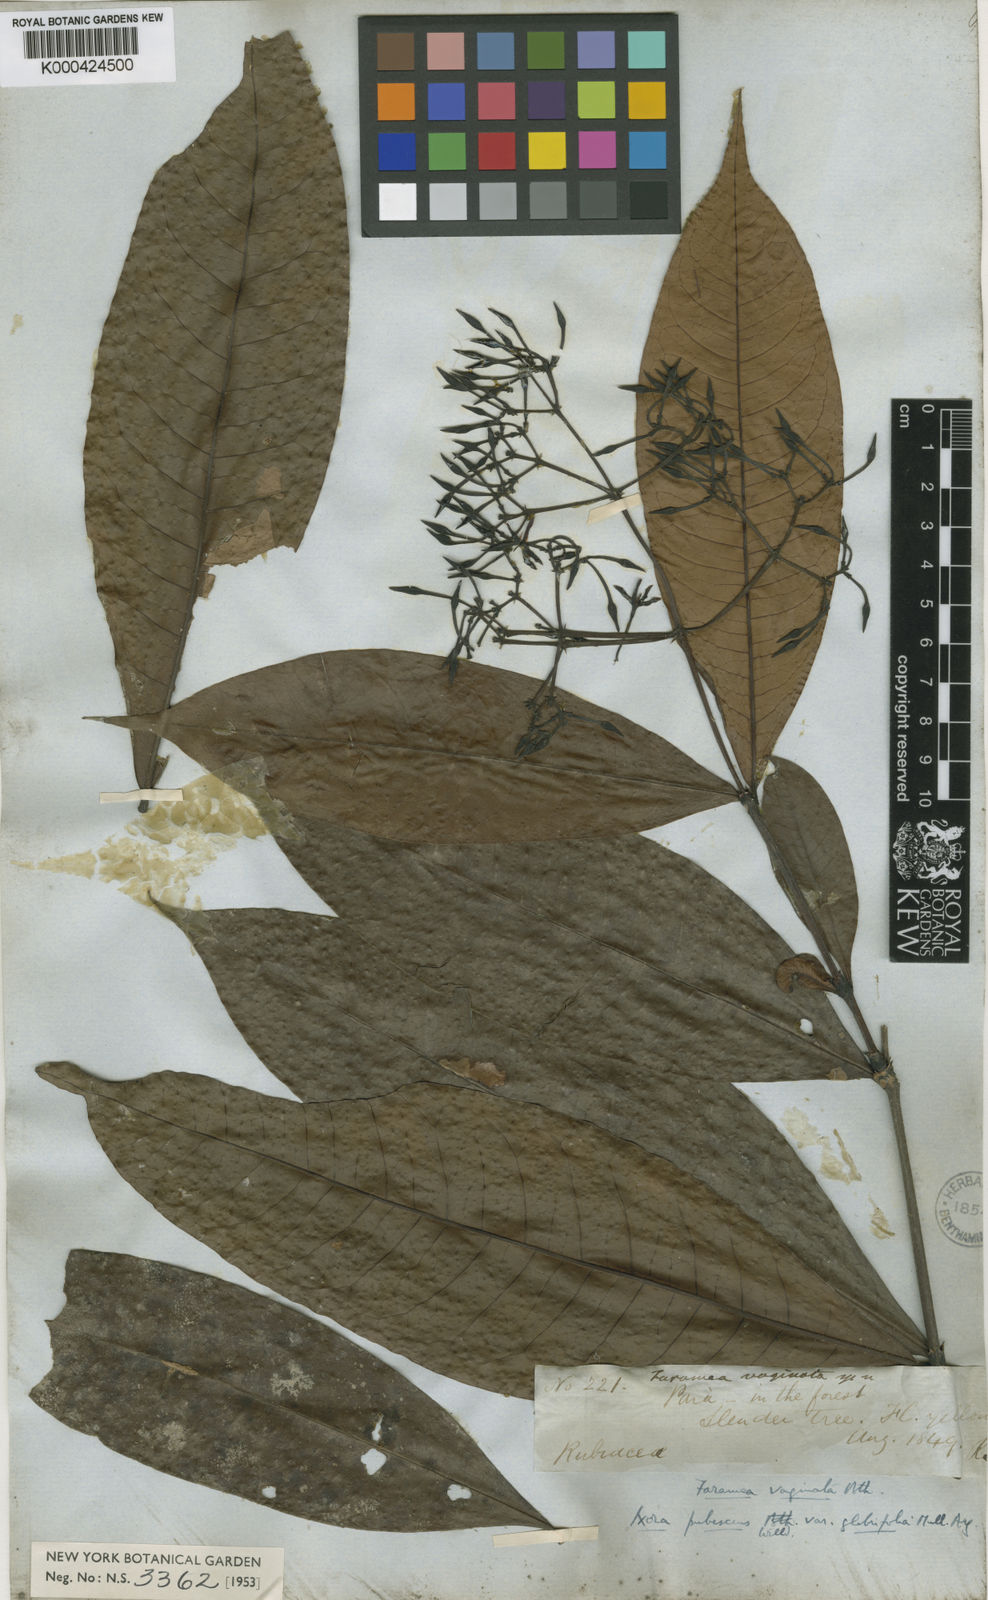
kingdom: Plantae
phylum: Tracheophyta
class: Magnoliopsida
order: Gentianales
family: Rubiaceae
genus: Ixora
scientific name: Ixora
